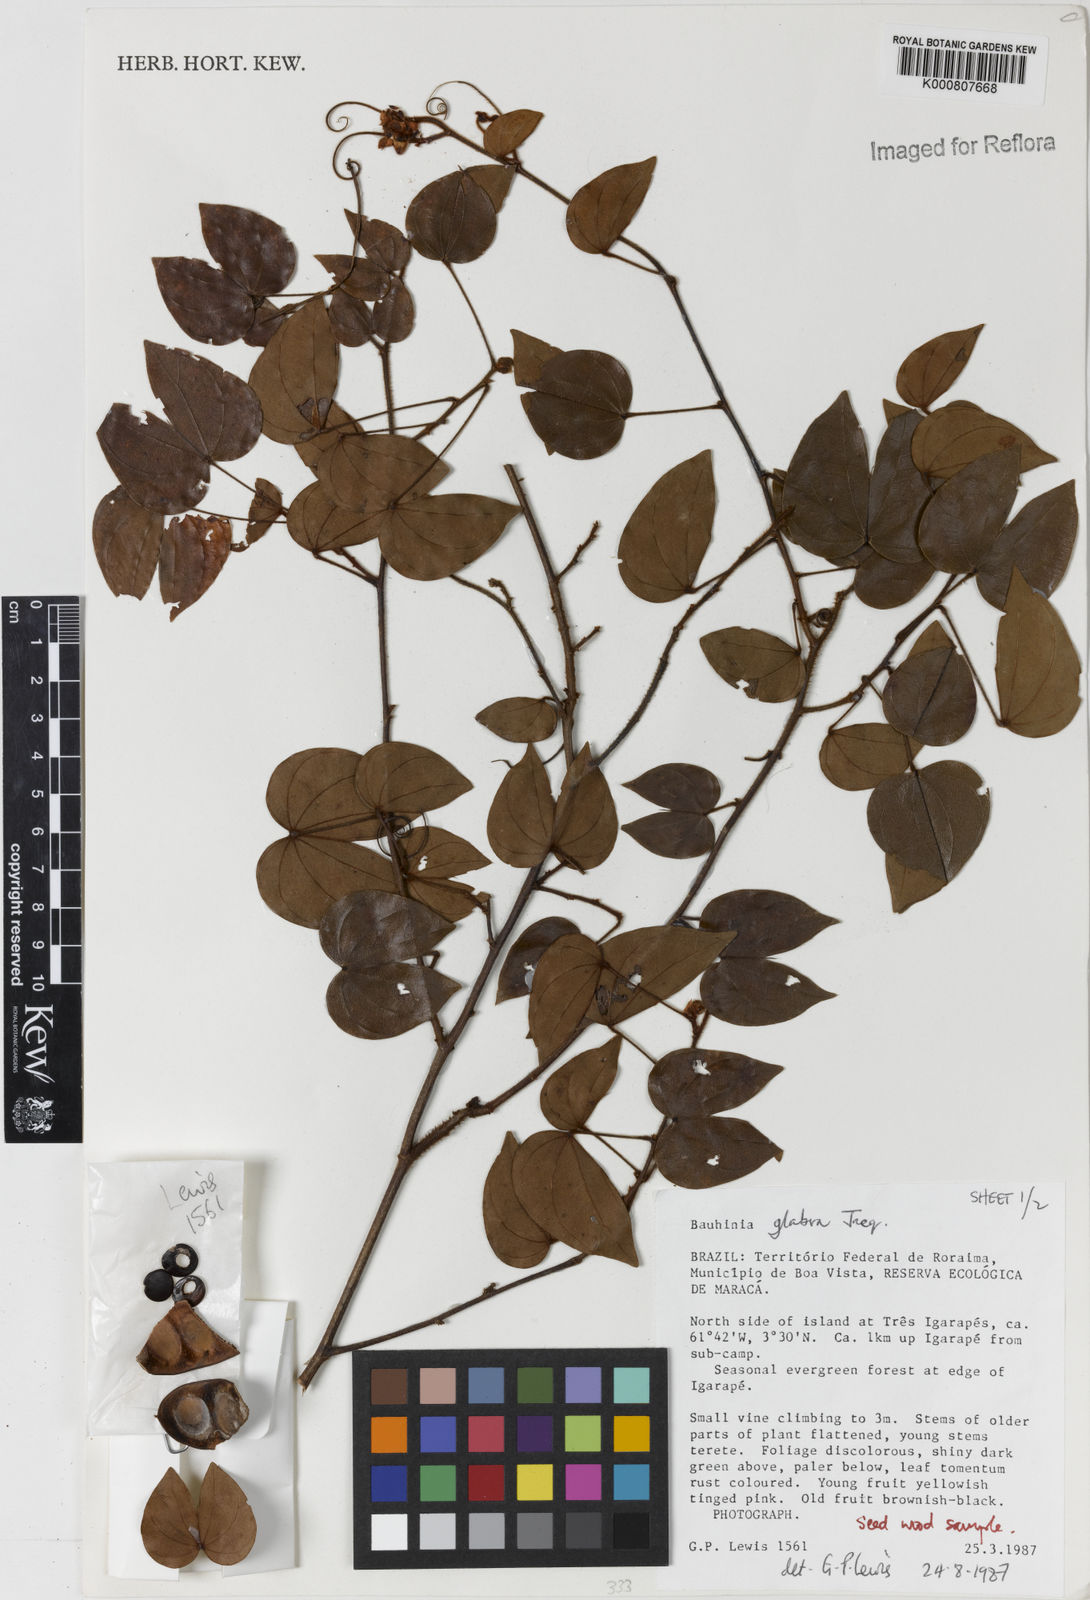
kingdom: Plantae
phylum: Tracheophyta
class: Magnoliopsida
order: Fabales
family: Fabaceae
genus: Schnella
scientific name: Schnella glabra
